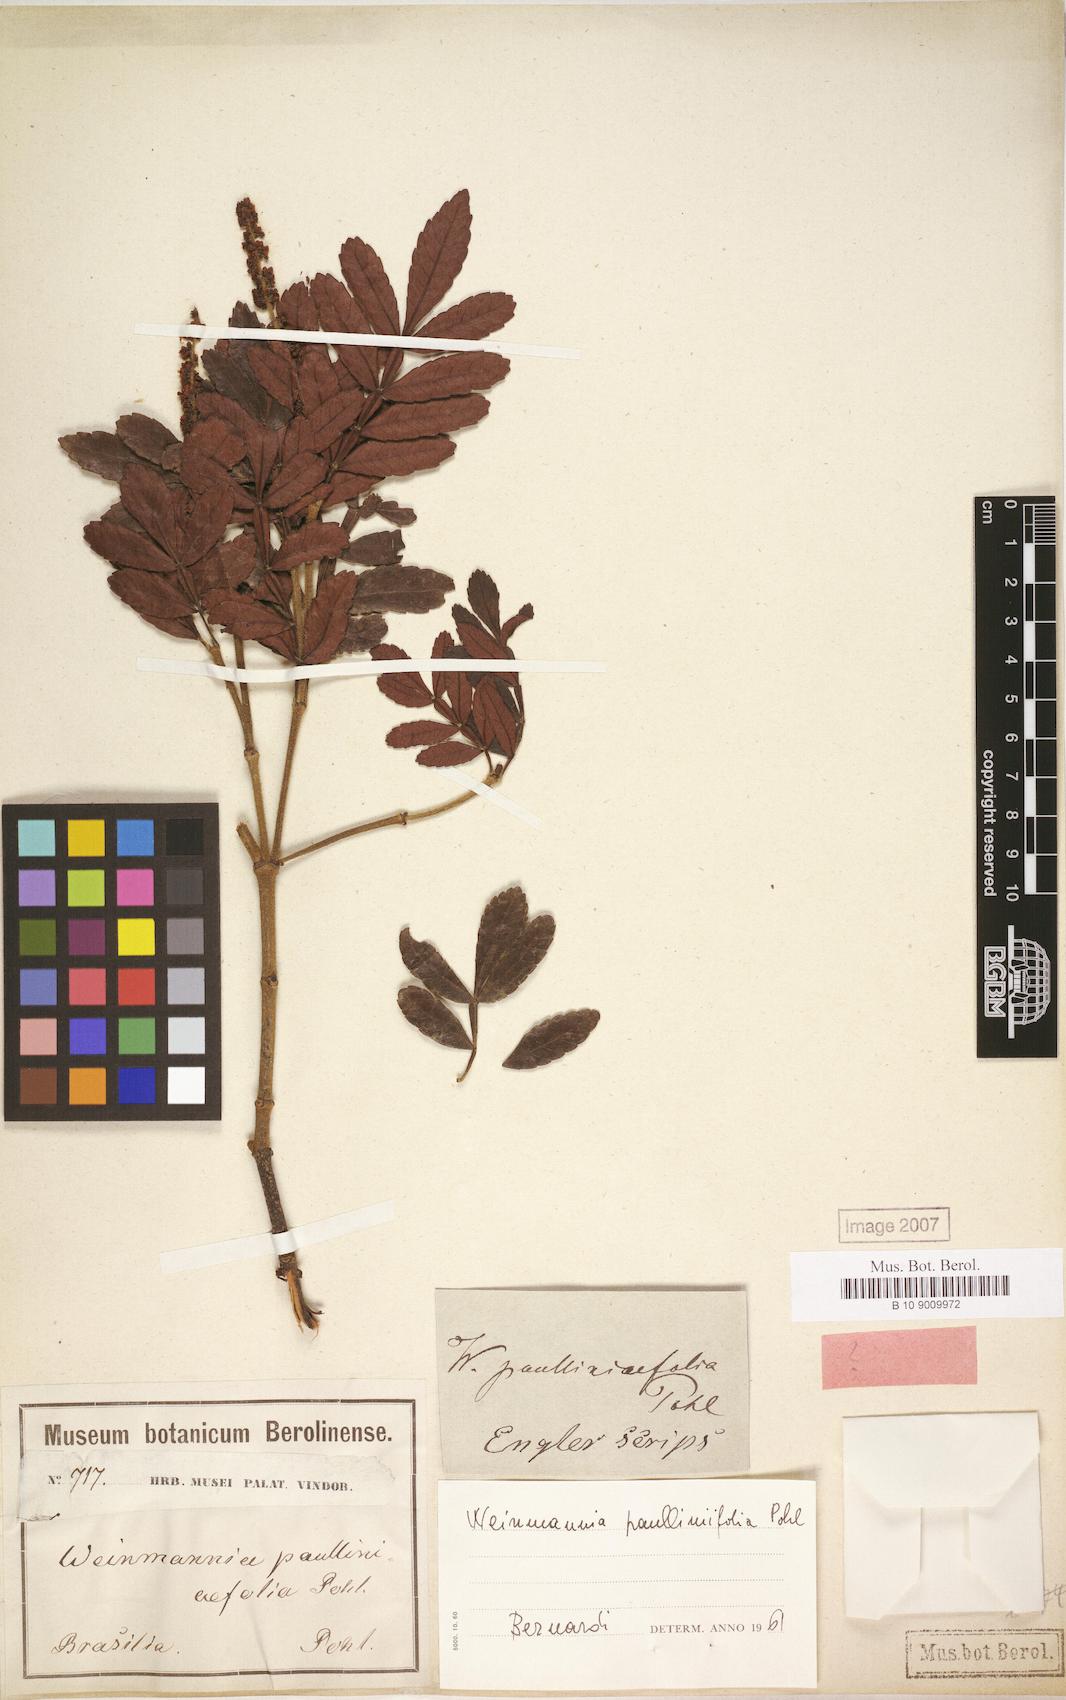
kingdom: Plantae
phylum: Tracheophyta
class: Magnoliopsida
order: Oxalidales
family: Cunoniaceae
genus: Weinmannia
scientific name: Weinmannia paullinifolia
